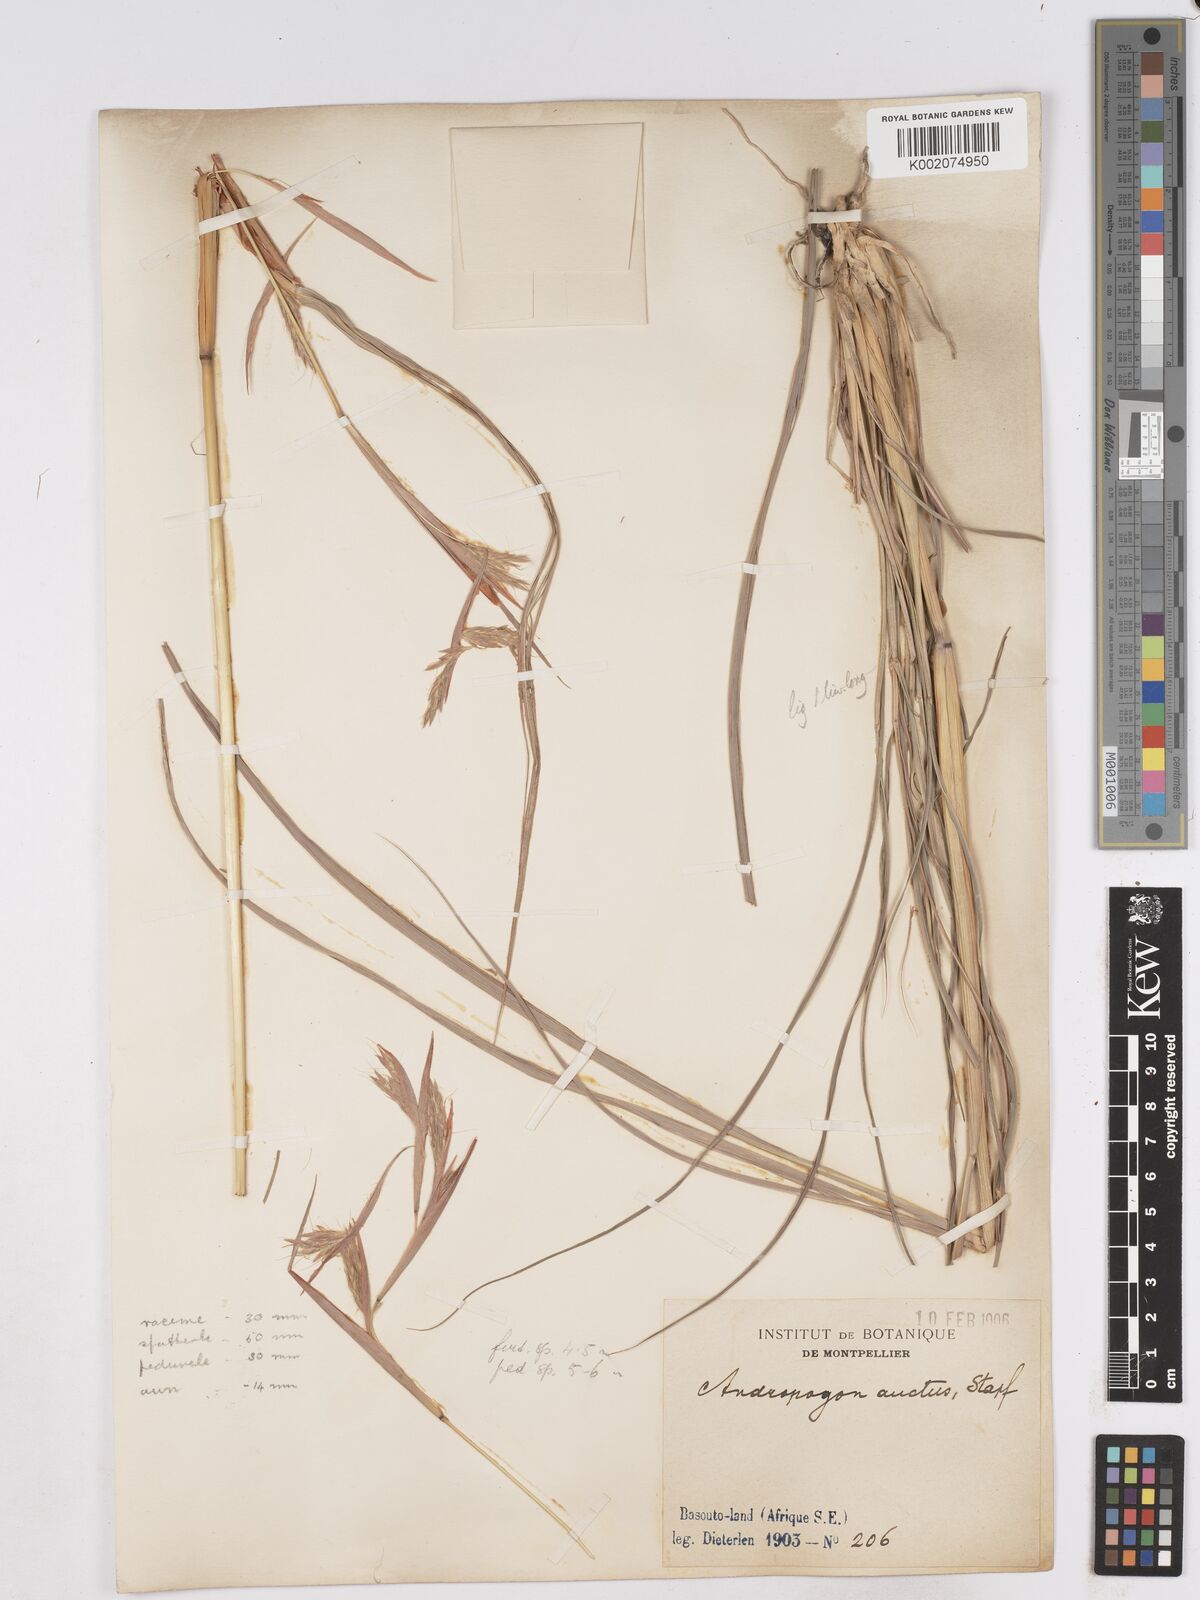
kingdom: Plantae
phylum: Tracheophyta
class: Liliopsida
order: Poales
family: Poaceae
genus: Hyparrhenia
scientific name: Hyparrhenia dregeana
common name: Silky thatching grass
